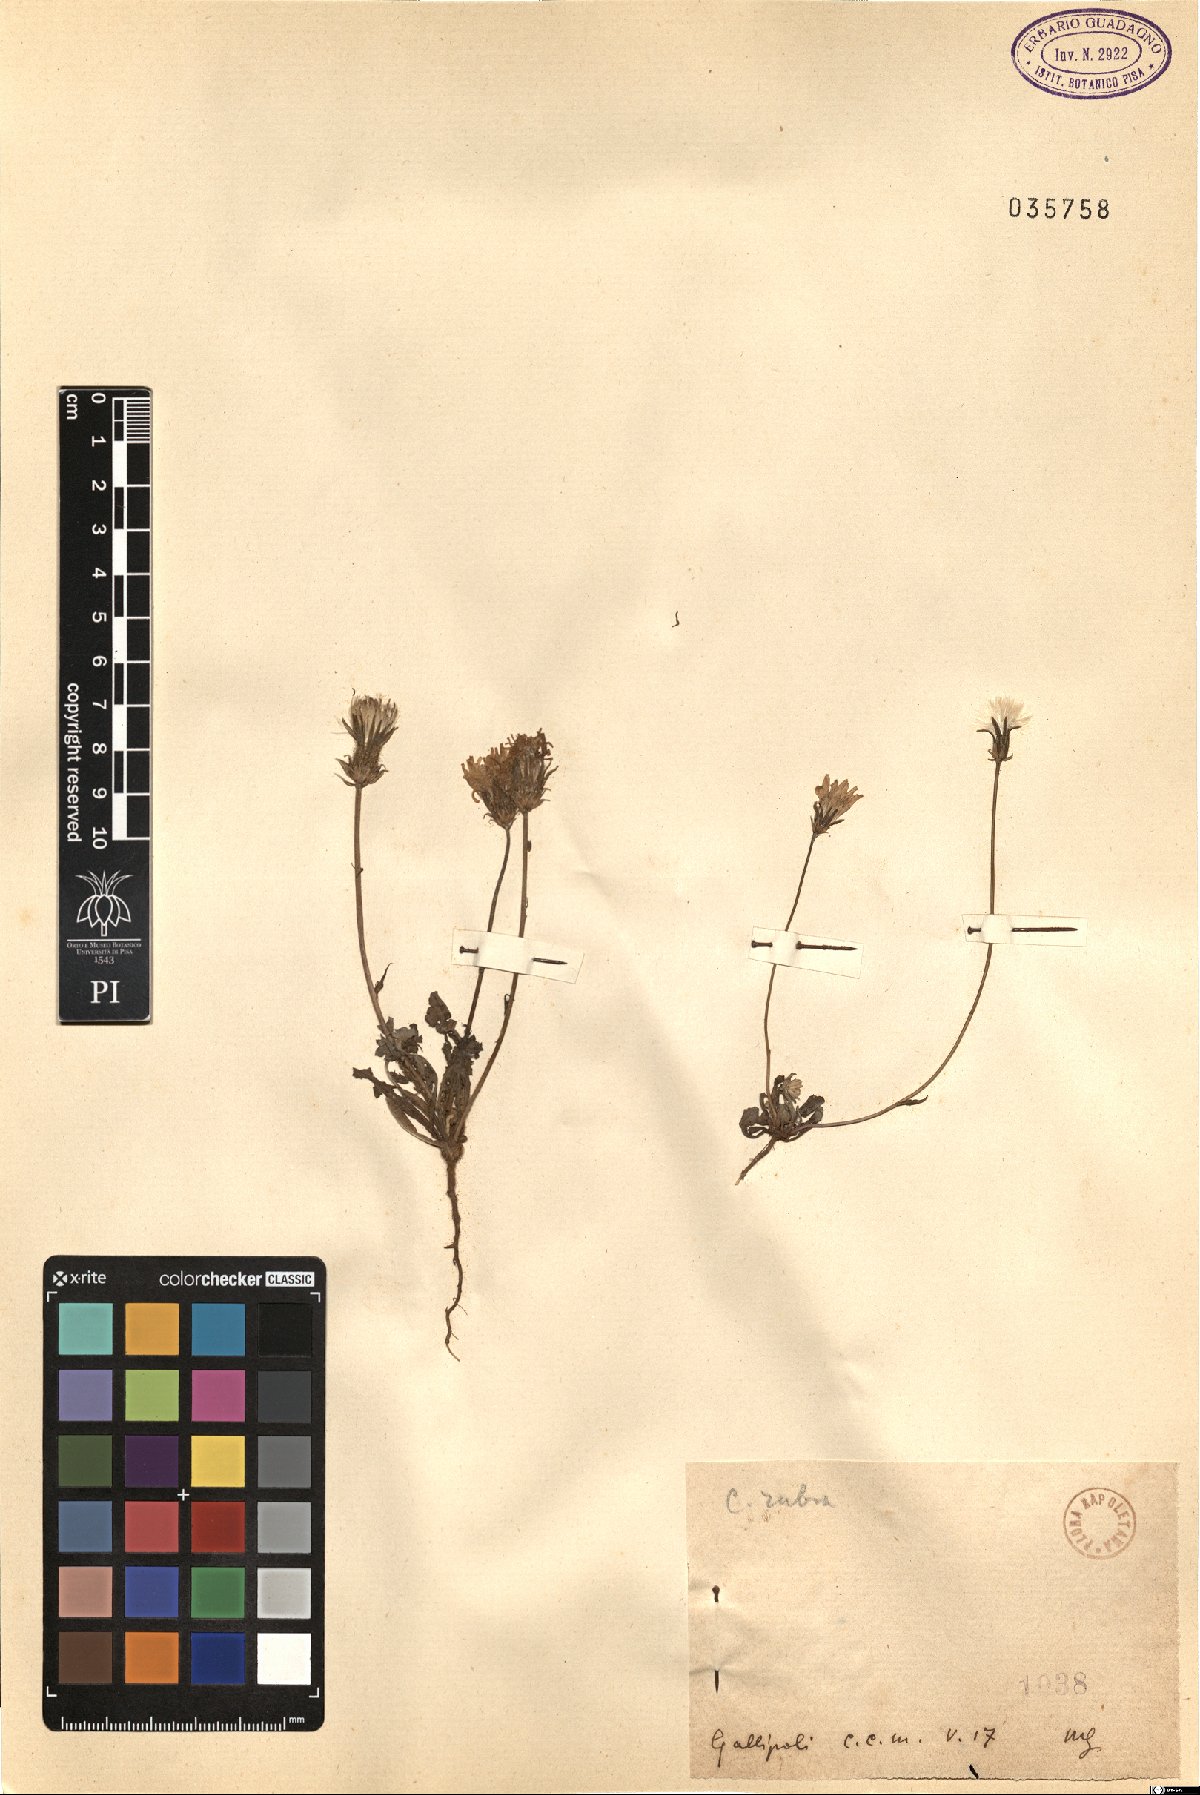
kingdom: Plantae
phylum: Tracheophyta
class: Magnoliopsida
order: Asterales
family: Asteraceae
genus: Crepis
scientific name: Crepis rubra
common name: Pink hawk's-beard
